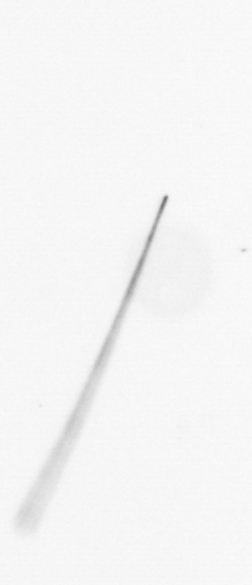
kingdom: Chromista
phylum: Ochrophyta
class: Bacillariophyceae
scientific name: Bacillariophyceae
